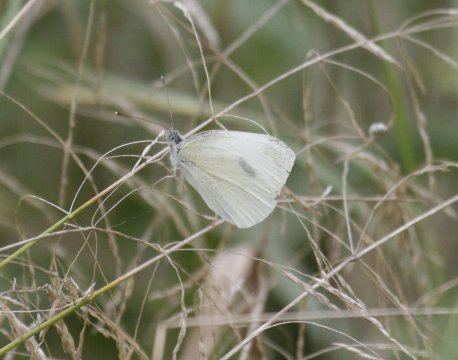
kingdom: Animalia
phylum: Arthropoda
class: Insecta
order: Lepidoptera
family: Pieridae
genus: Pieris
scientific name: Pieris rapae
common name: Cabbage White
